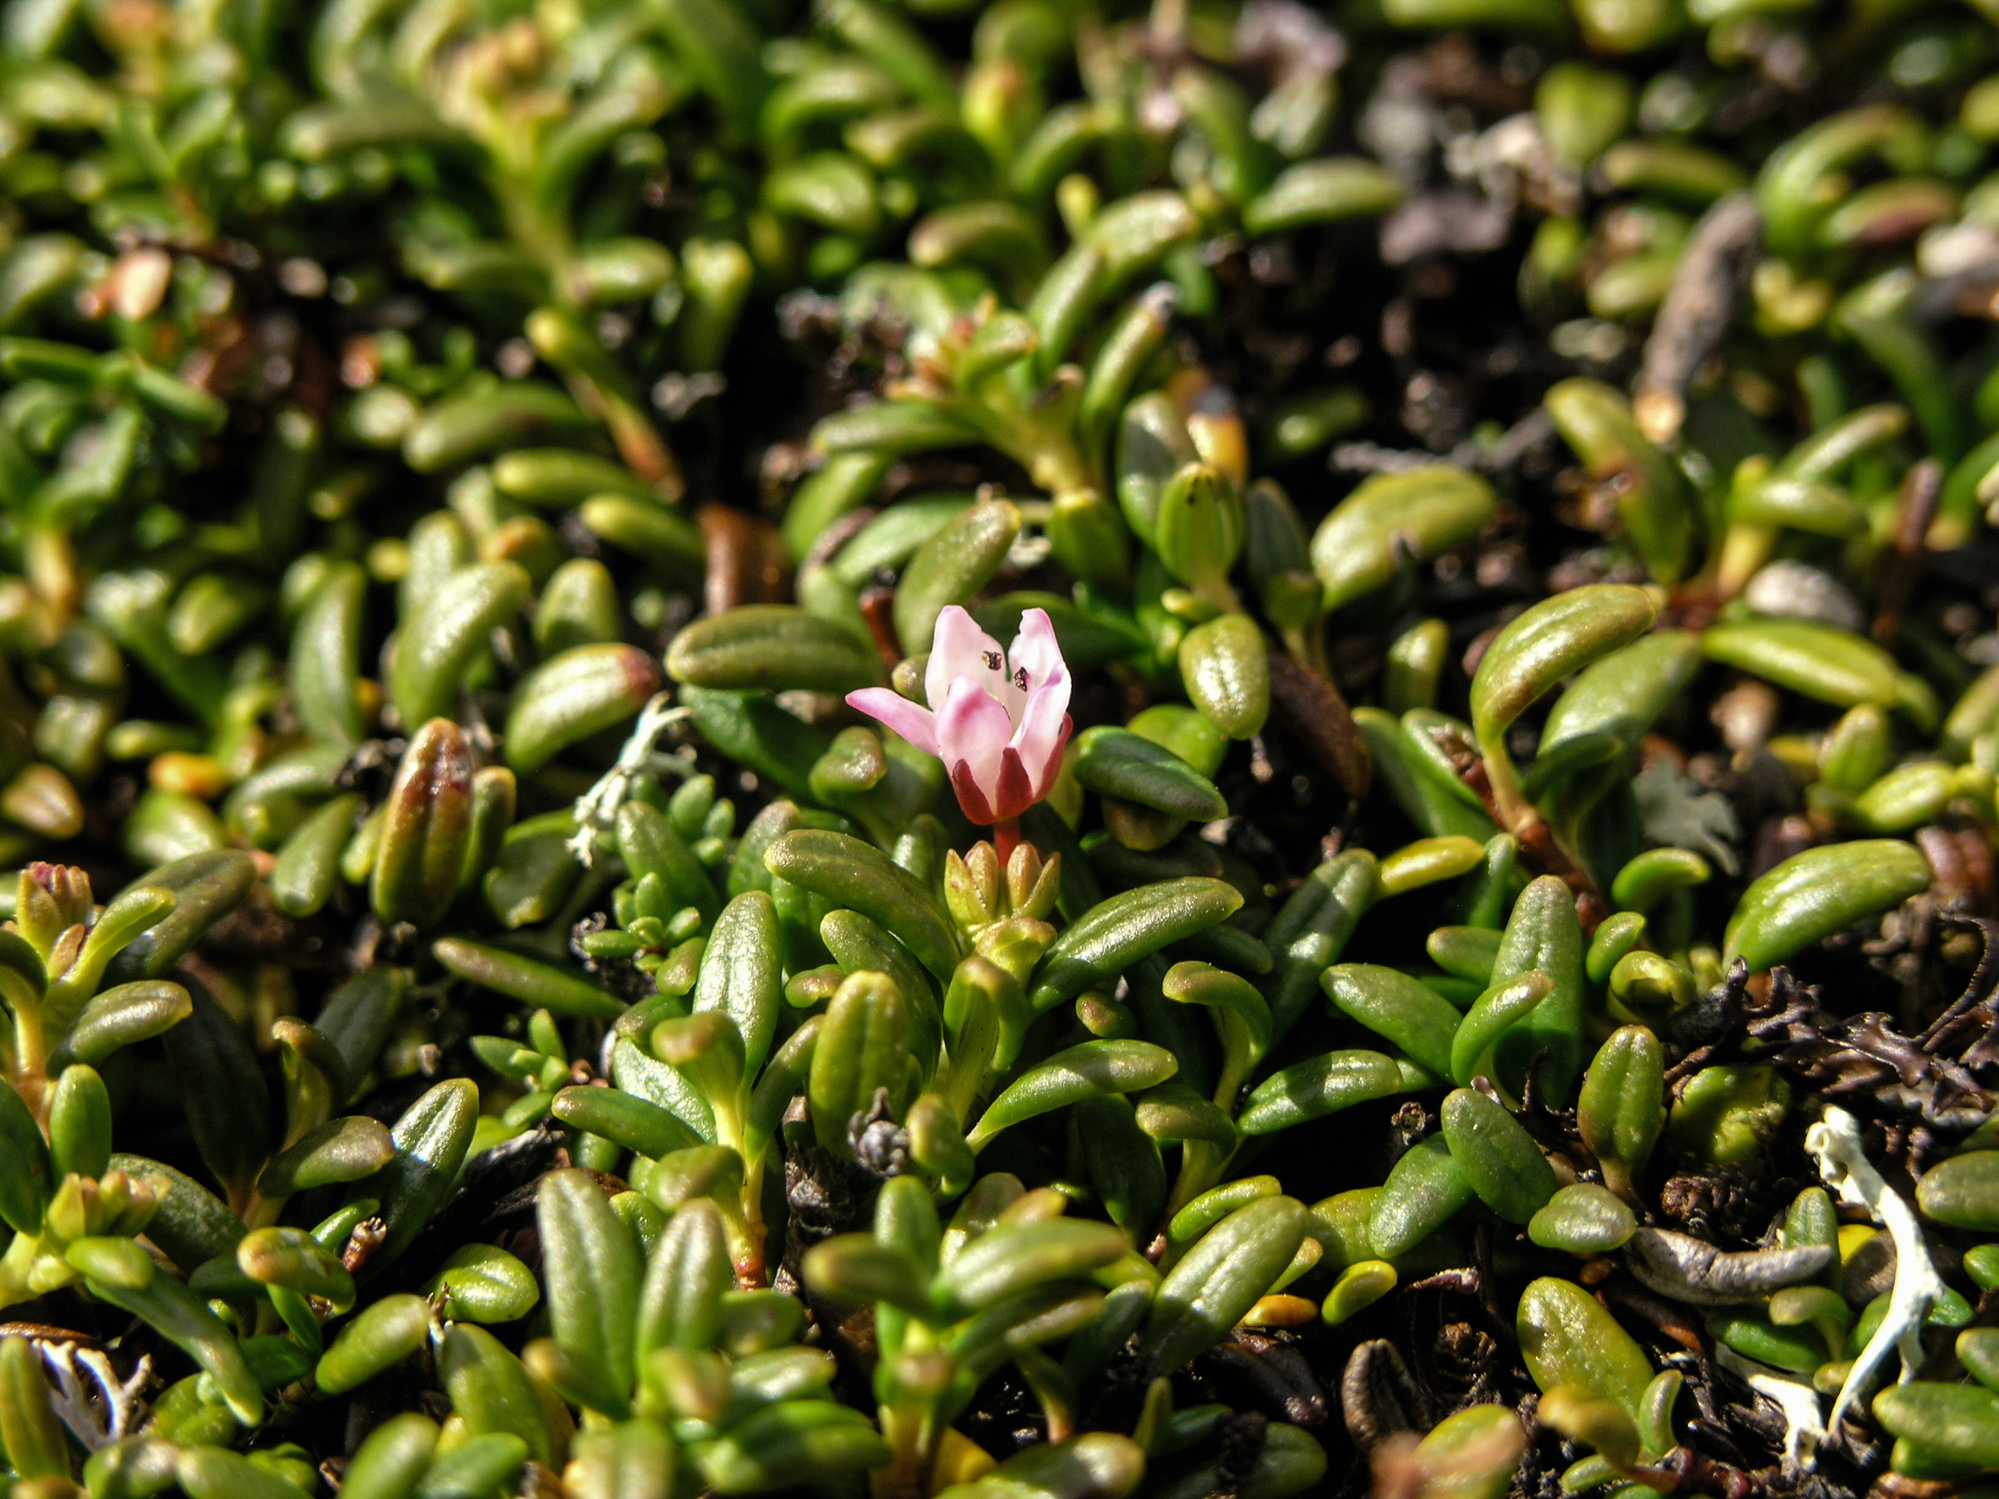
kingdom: Plantae
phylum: Tracheophyta
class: Magnoliopsida
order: Ericales
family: Ericaceae
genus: Kalmia
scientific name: Kalmia procumbens
